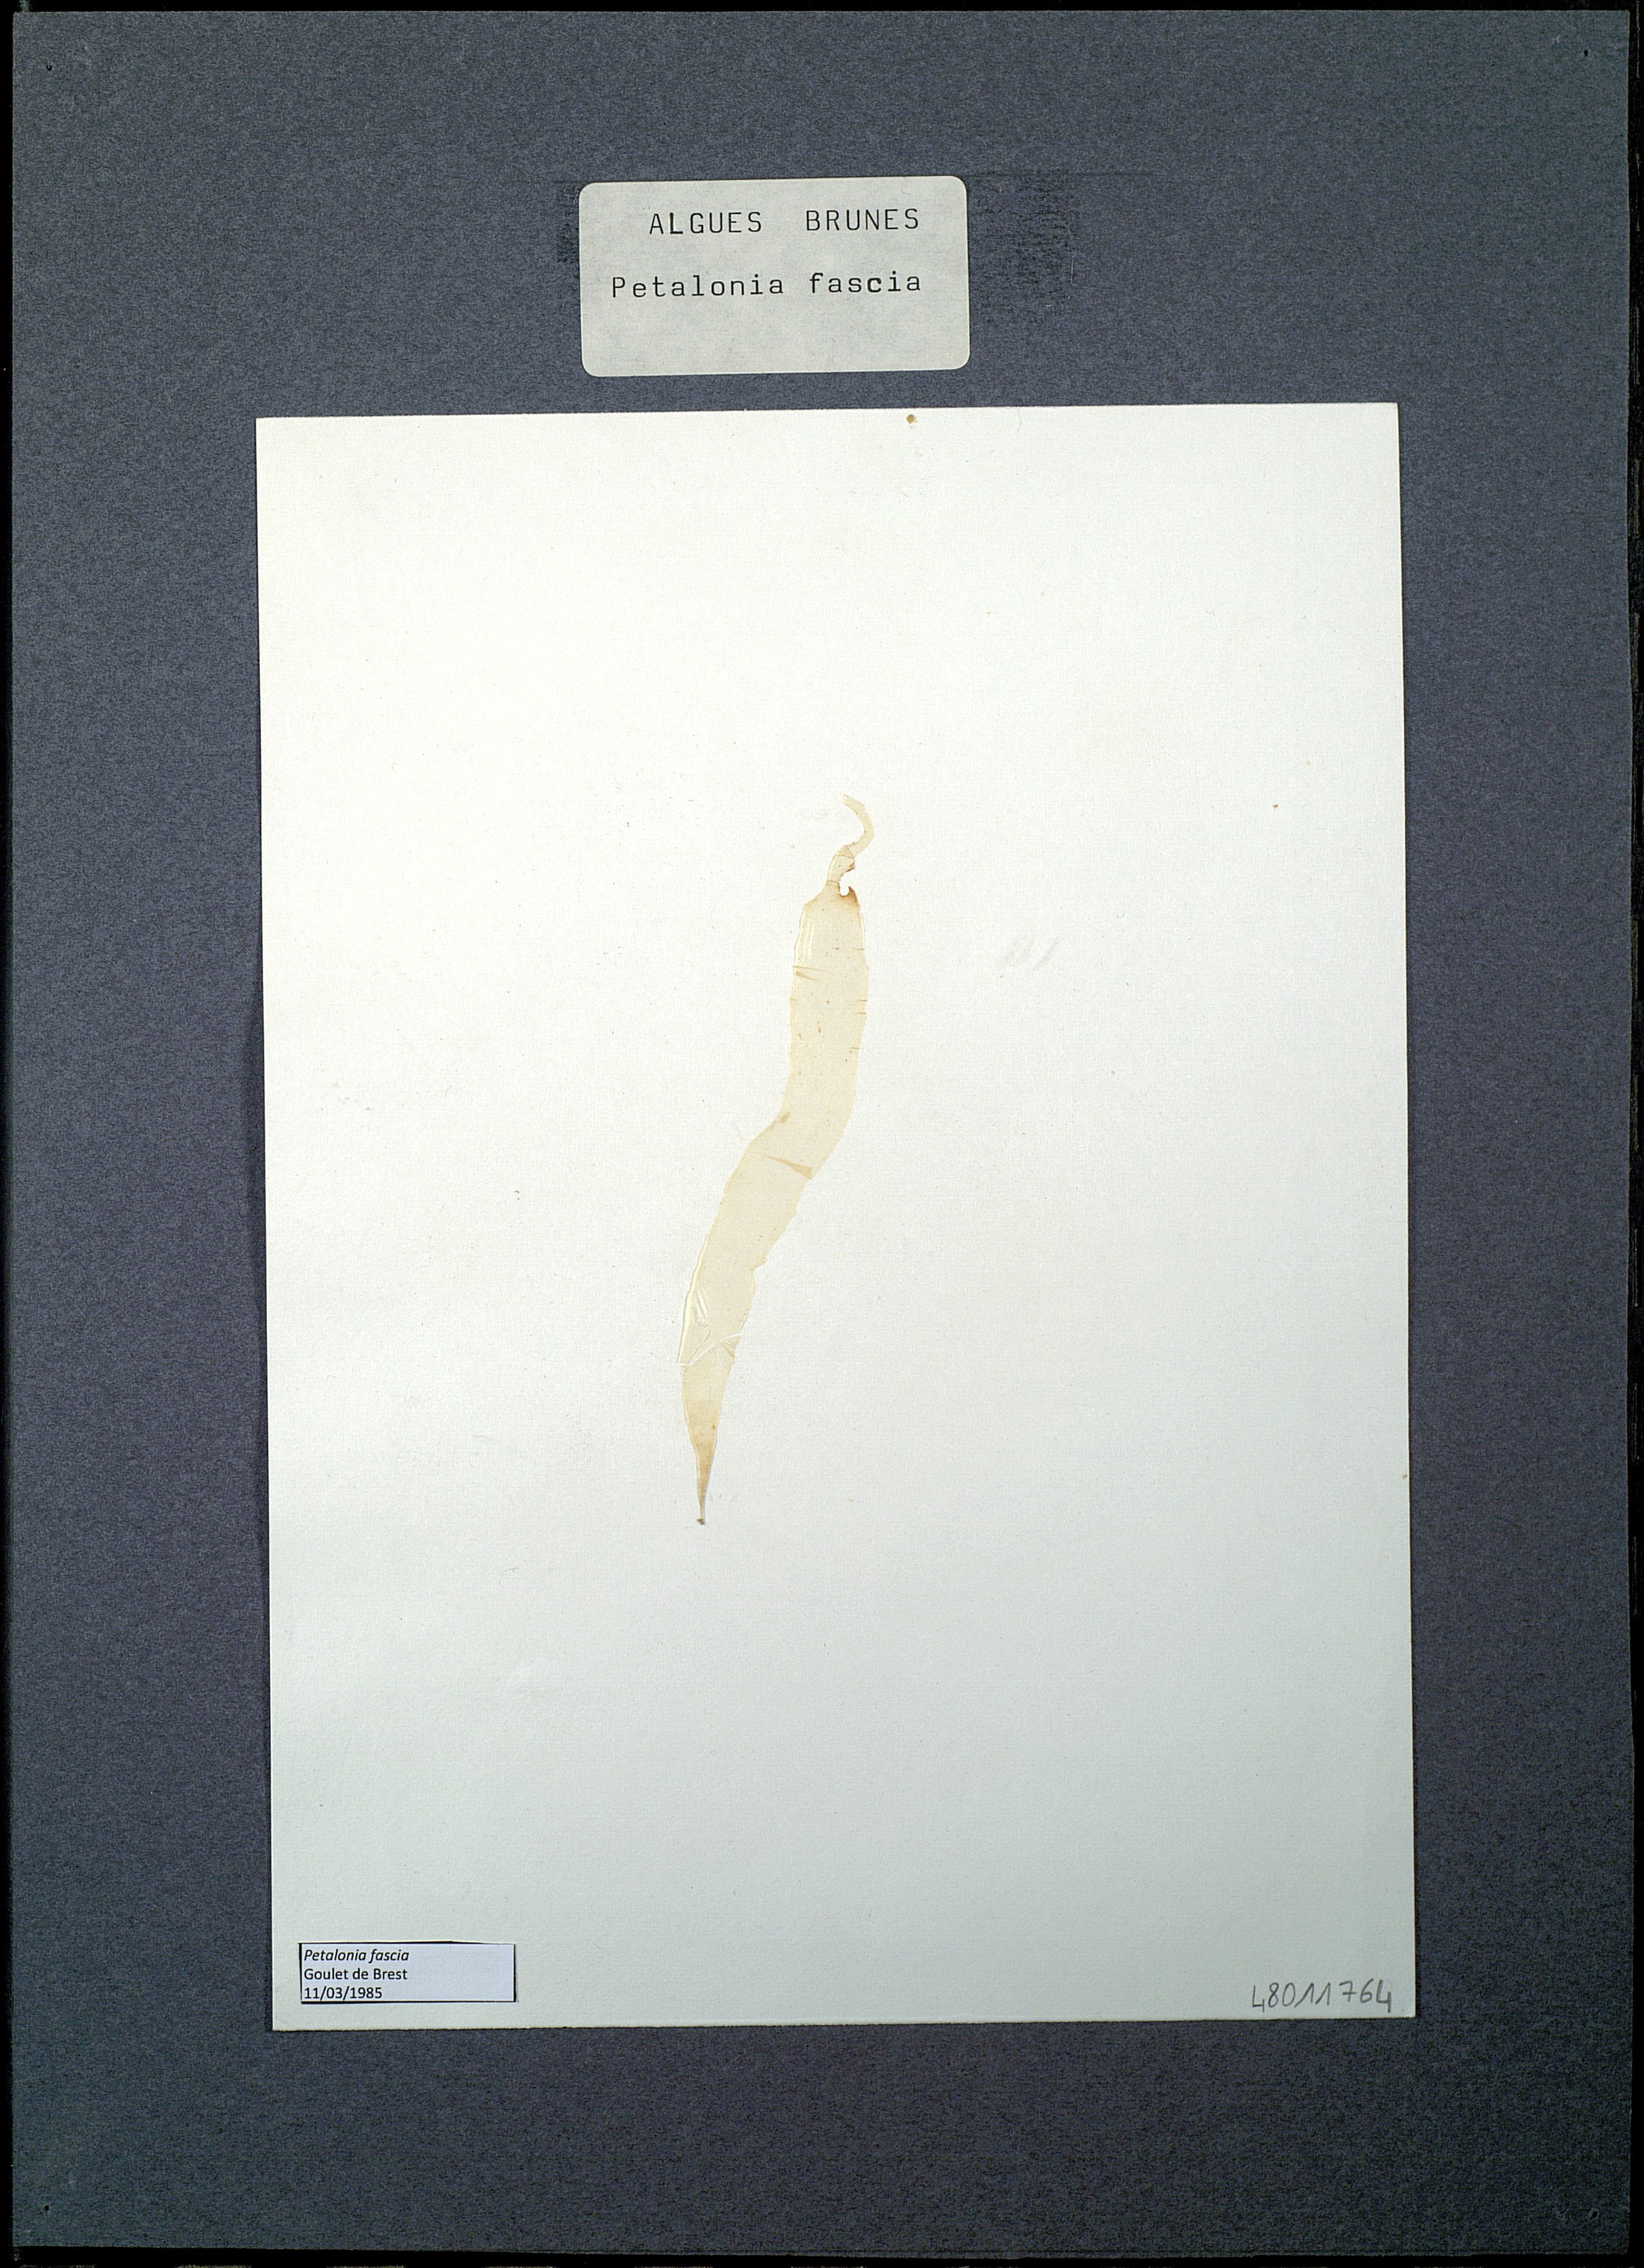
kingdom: Chromista
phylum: Ochrophyta
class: Phaeophyceae
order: Scytosiphonales
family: Scytosiphonaceae
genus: Petalonia
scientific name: Petalonia fascia
